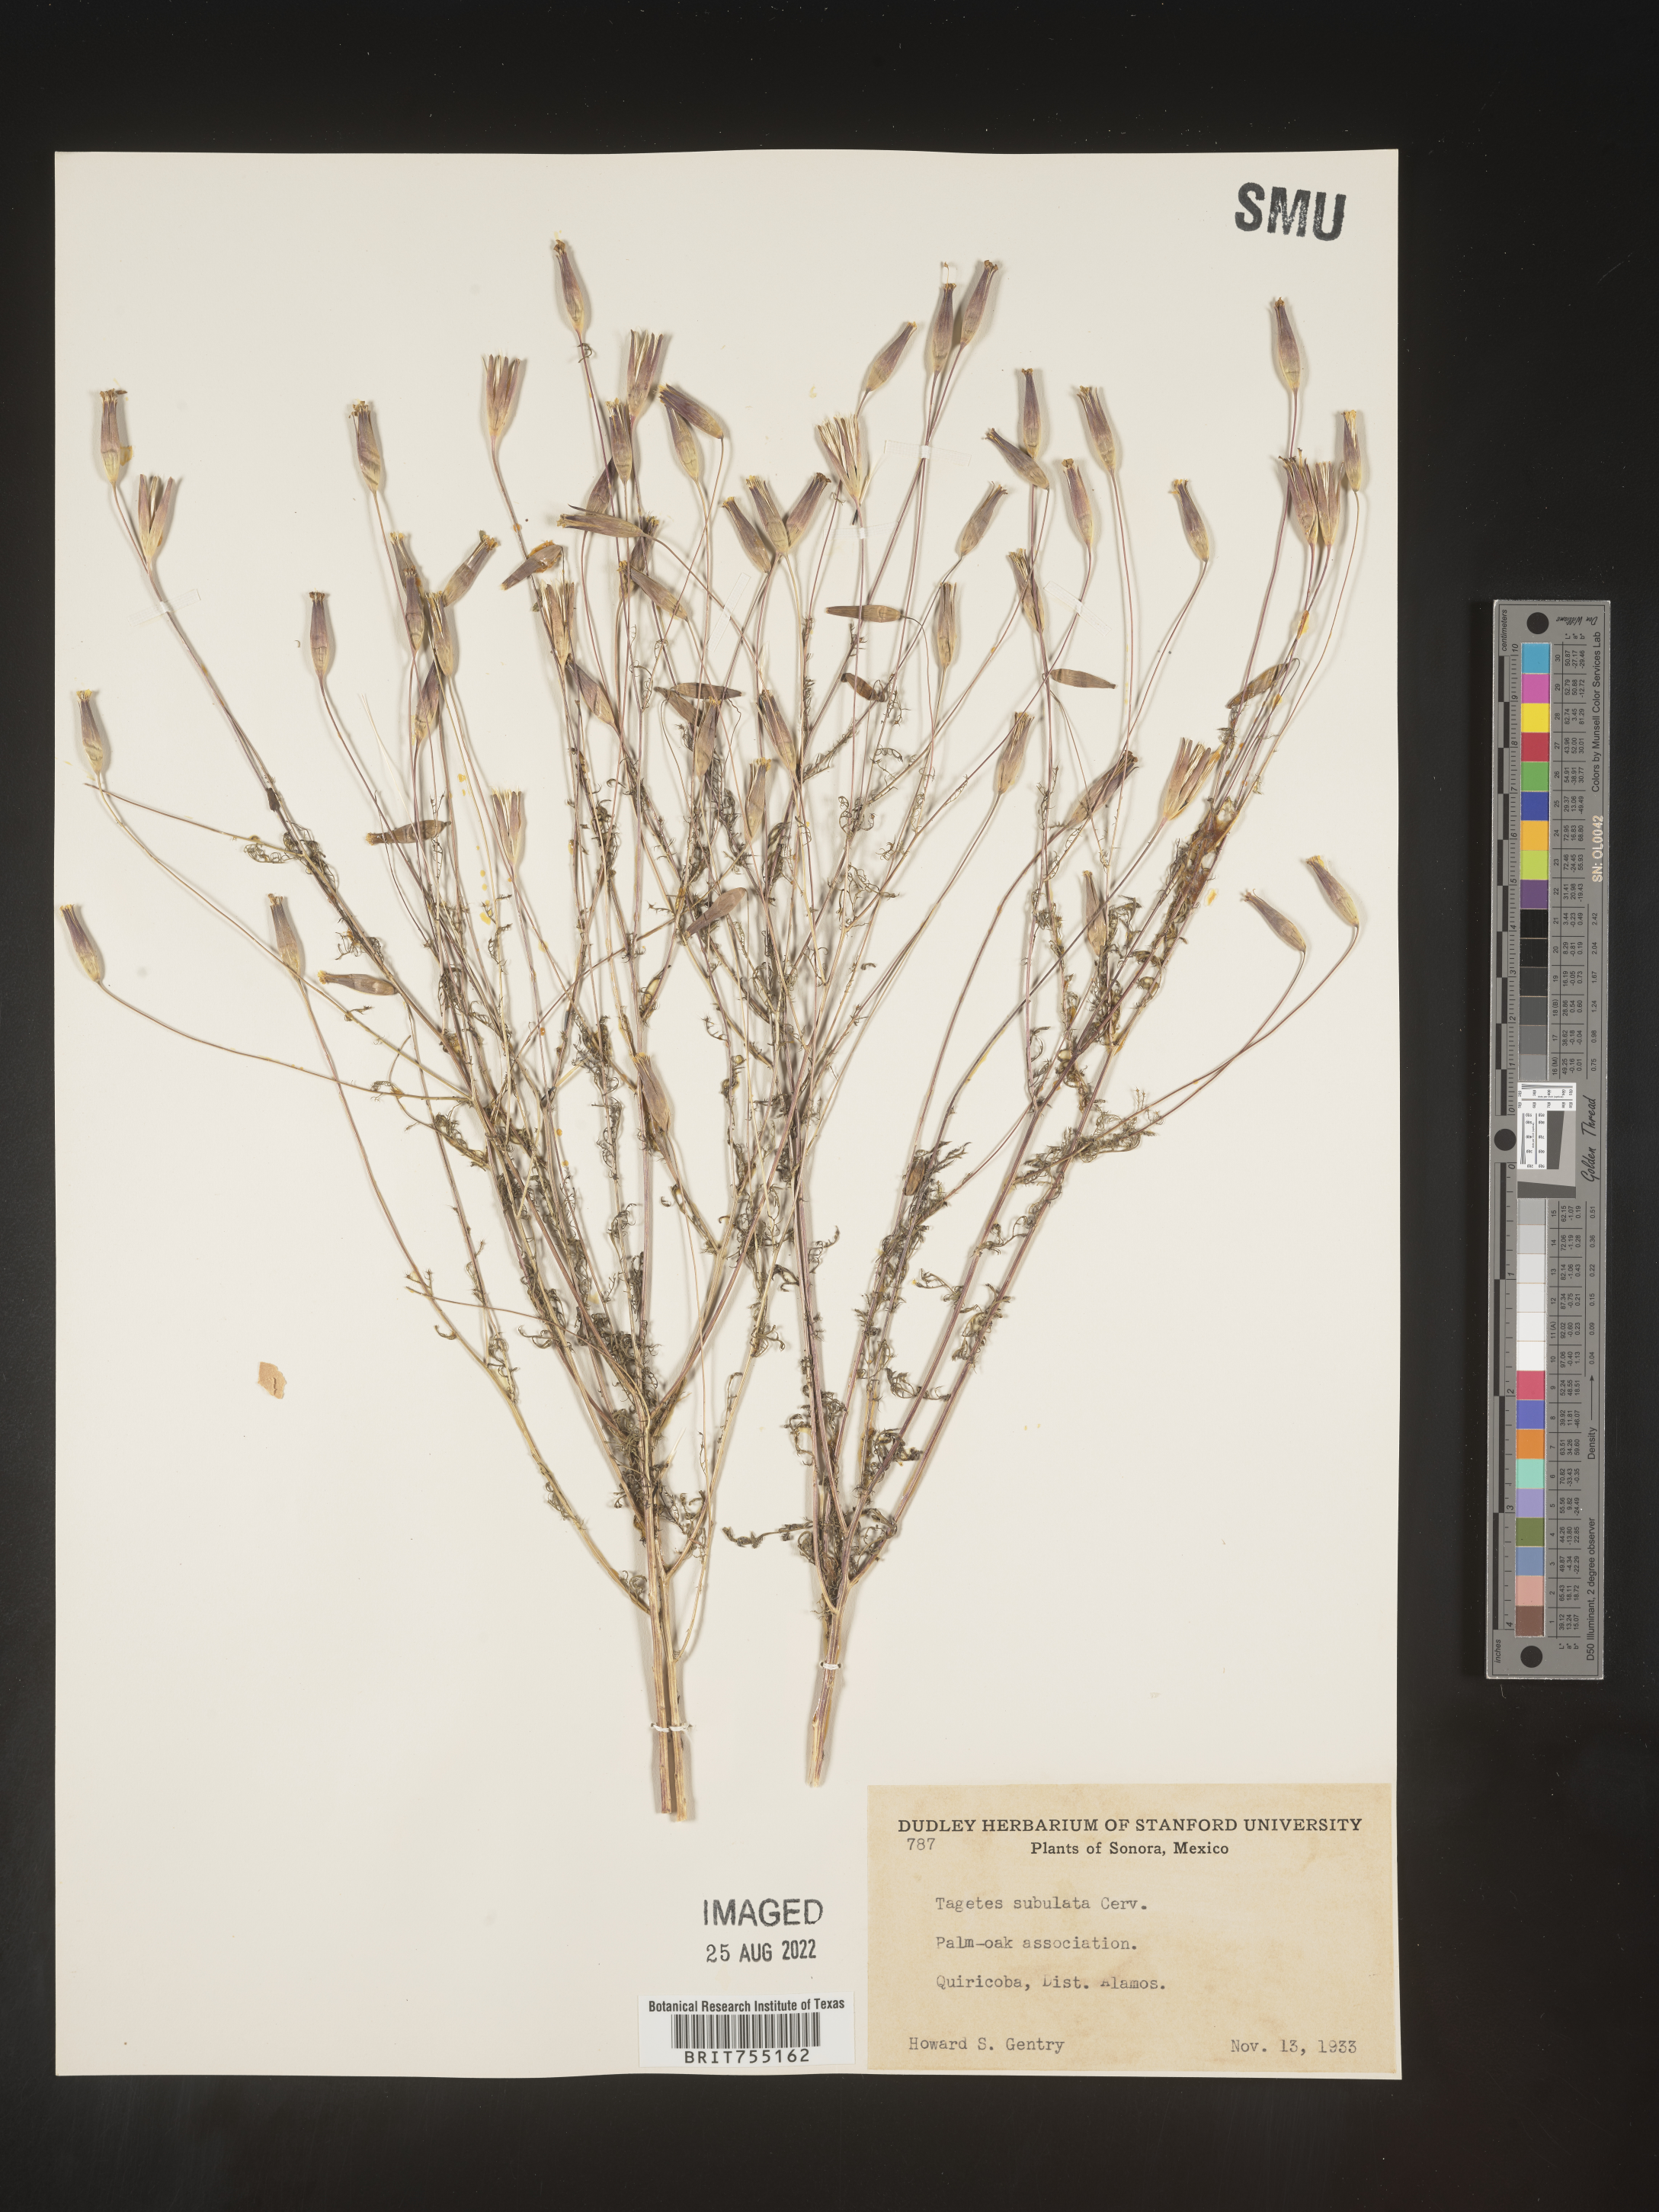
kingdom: Plantae
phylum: Tracheophyta
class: Magnoliopsida
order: Asterales
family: Asteraceae
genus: Tagetes
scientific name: Tagetes
